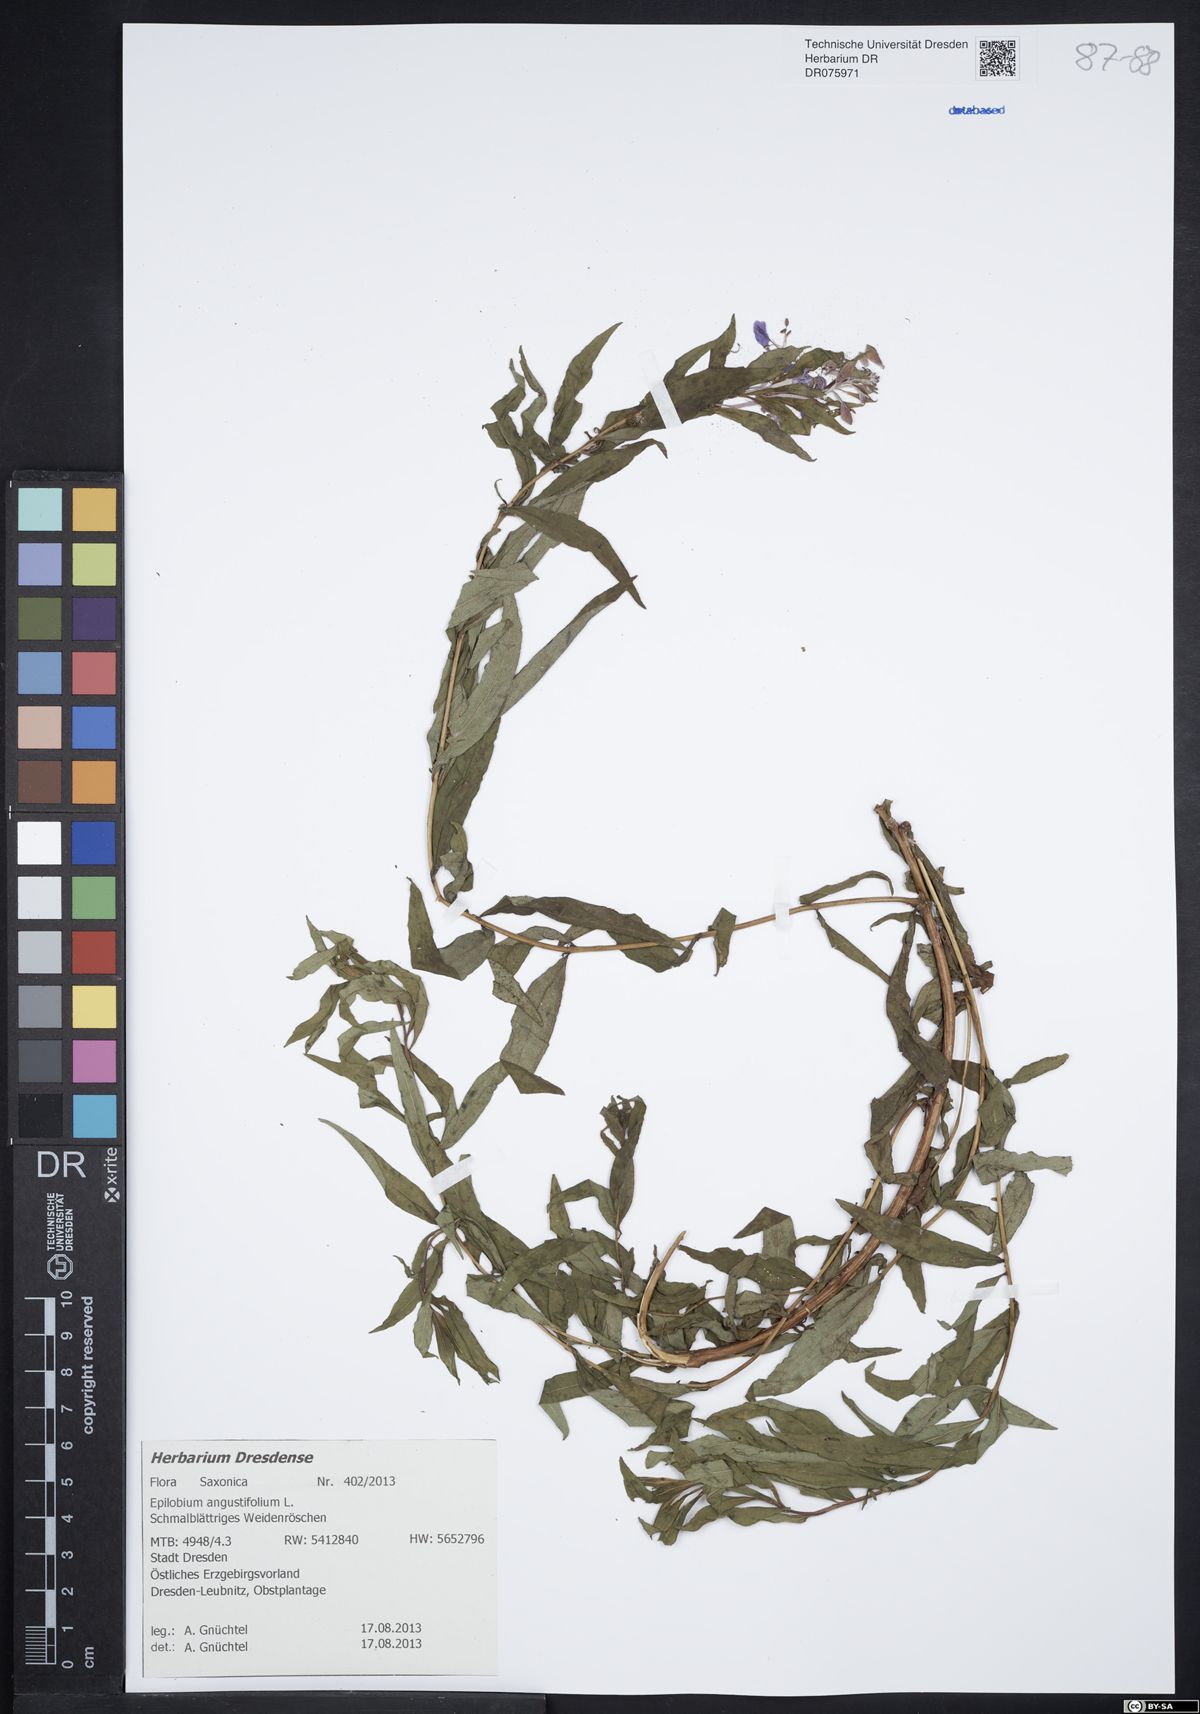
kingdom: Plantae
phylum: Tracheophyta
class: Magnoliopsida
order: Myrtales
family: Onagraceae
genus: Chamaenerion
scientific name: Chamaenerion angustifolium
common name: Fireweed
